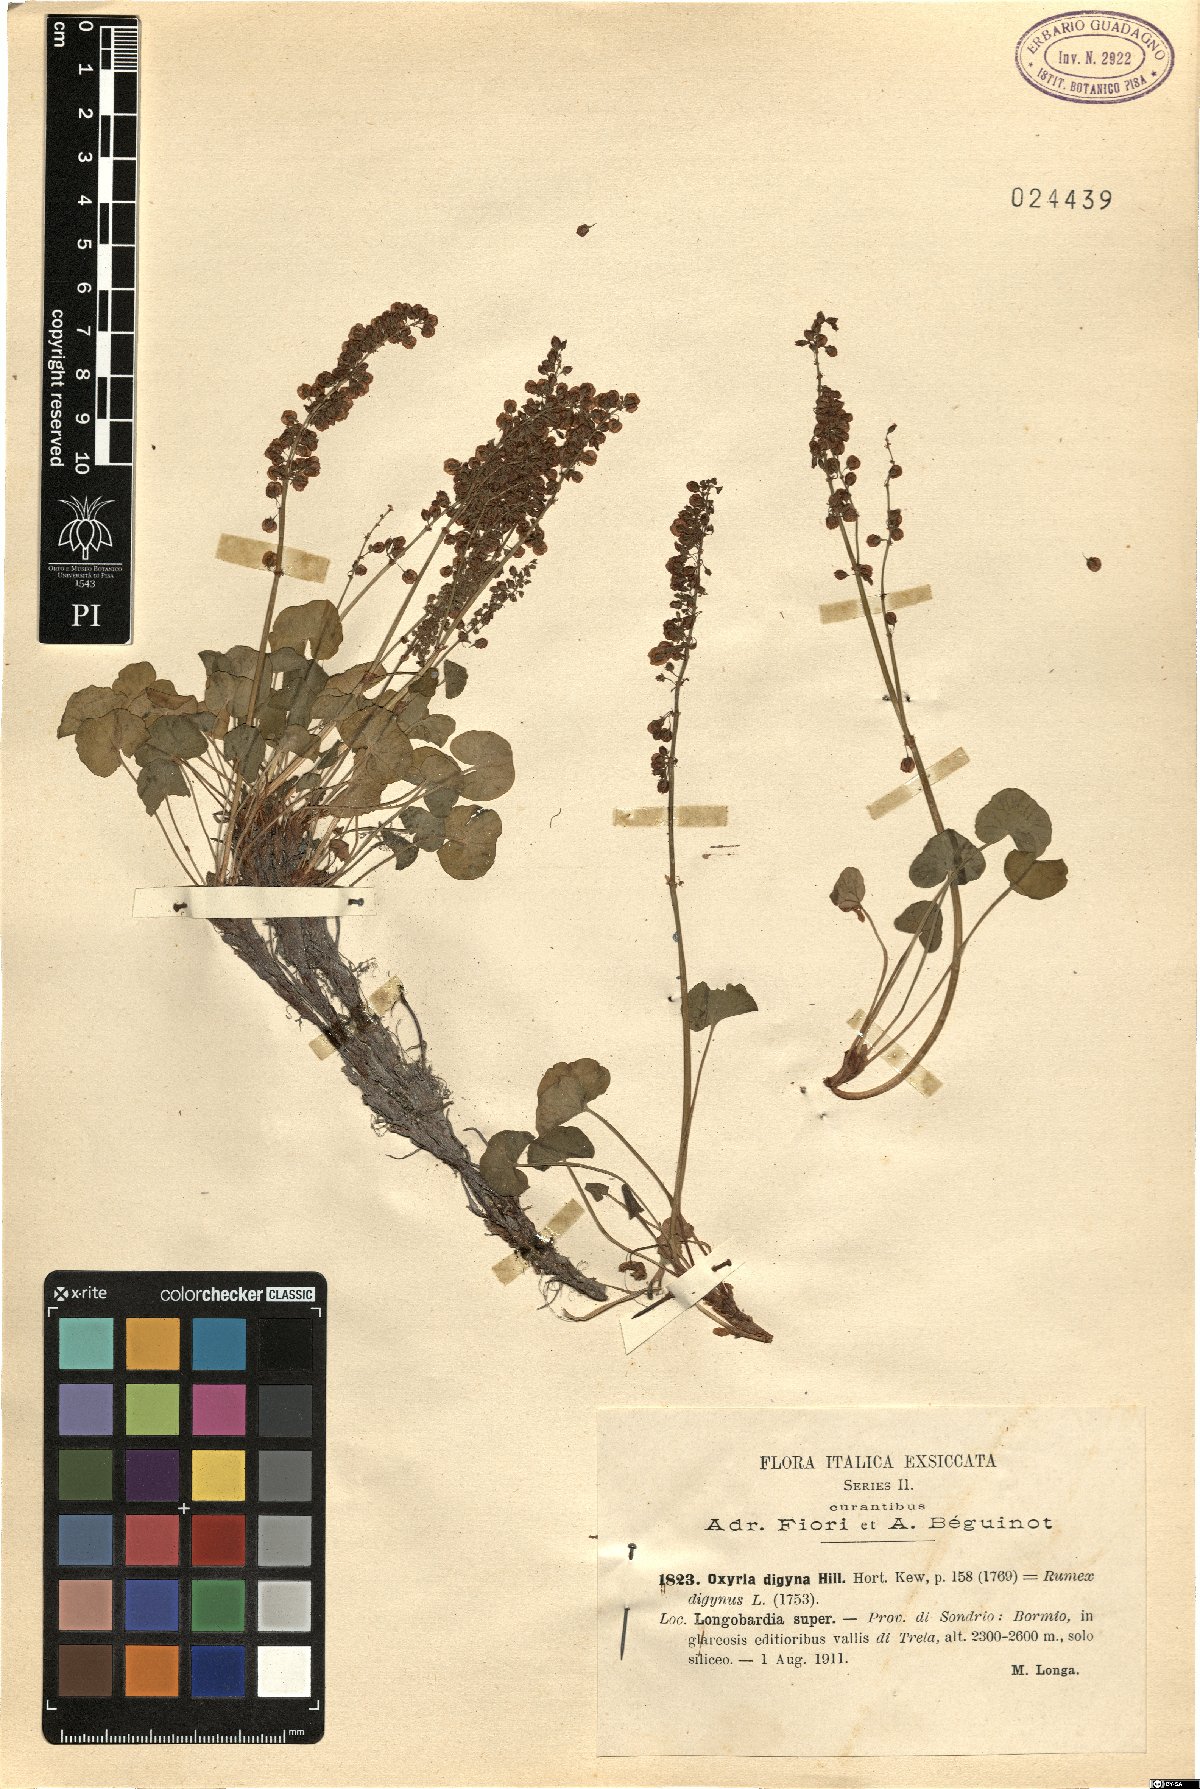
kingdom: Plantae
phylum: Tracheophyta
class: Magnoliopsida
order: Caryophyllales
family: Polygonaceae
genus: Oxyria
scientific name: Oxyria digyna
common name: Alpine mountain-sorrel
